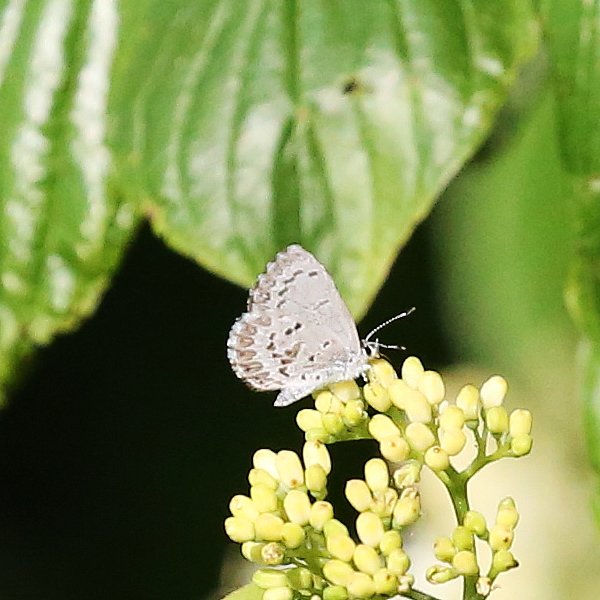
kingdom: Animalia
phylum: Arthropoda
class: Insecta
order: Lepidoptera
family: Lycaenidae
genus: Celastrina
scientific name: Celastrina lucia
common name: Northern Spring Azure
